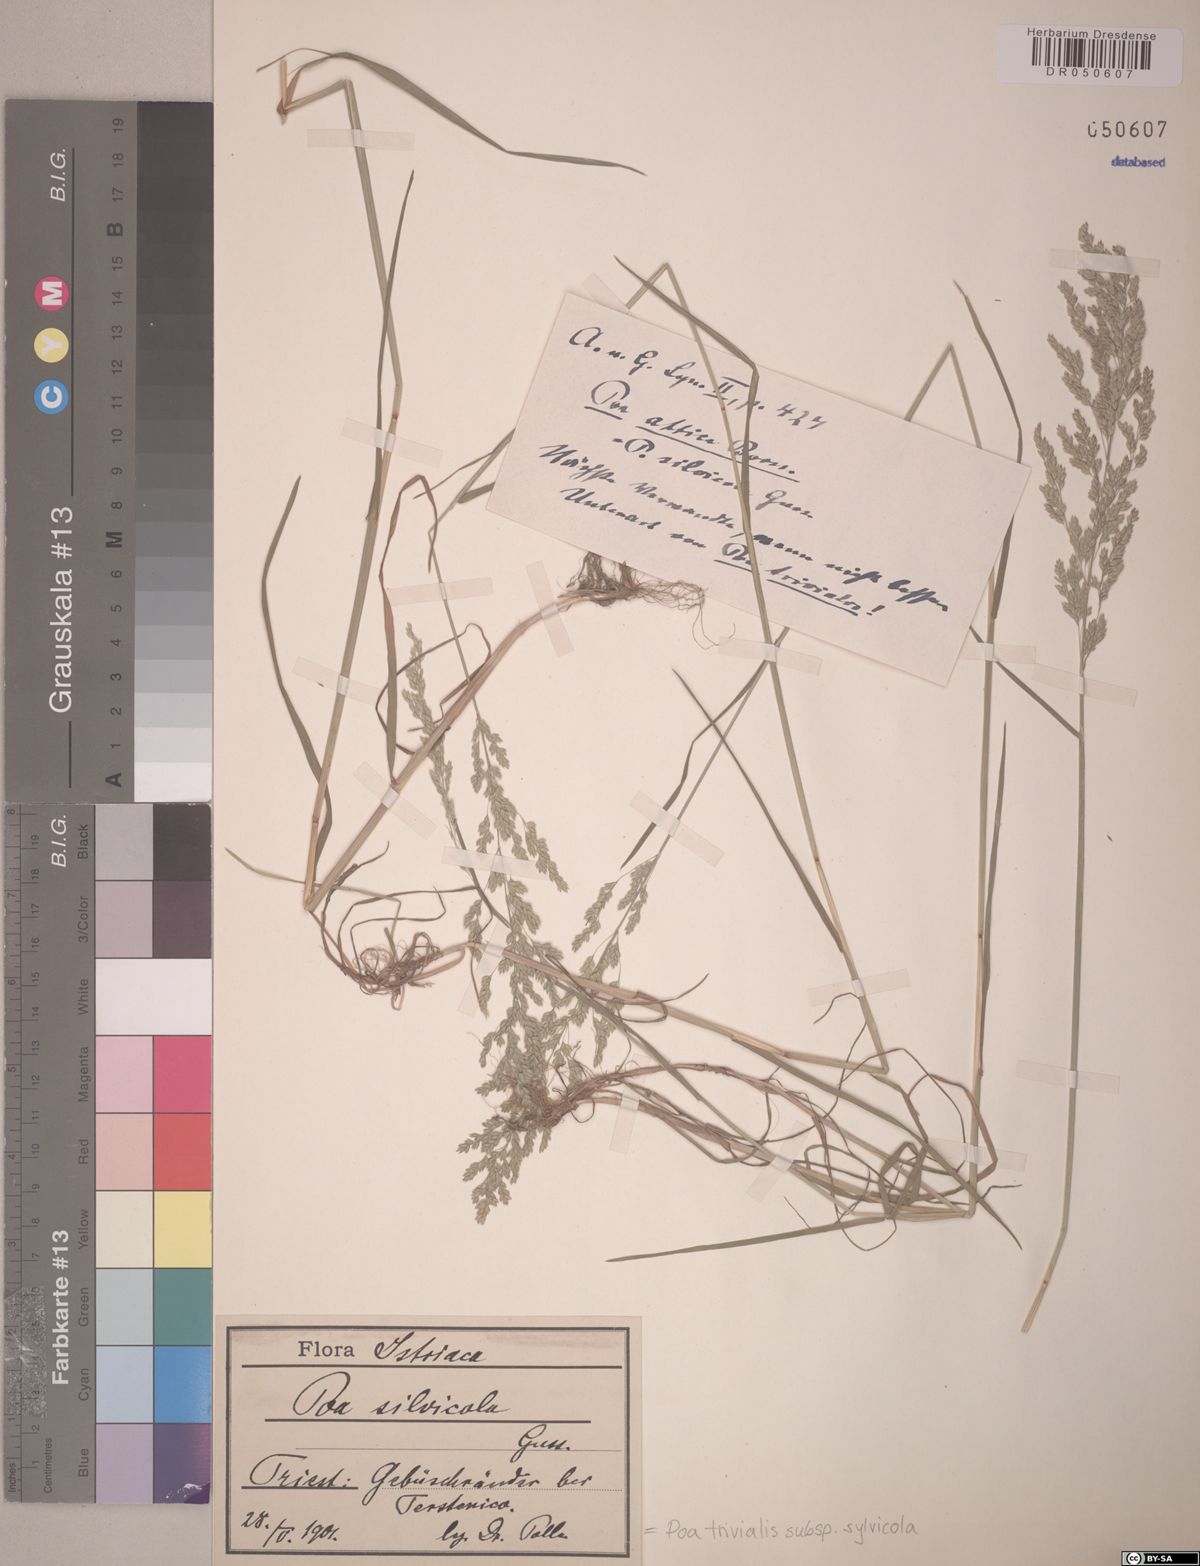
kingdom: Plantae
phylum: Tracheophyta
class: Liliopsida
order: Poales
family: Poaceae
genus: Poa
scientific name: Poa trivialis
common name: Rough bluegrass
